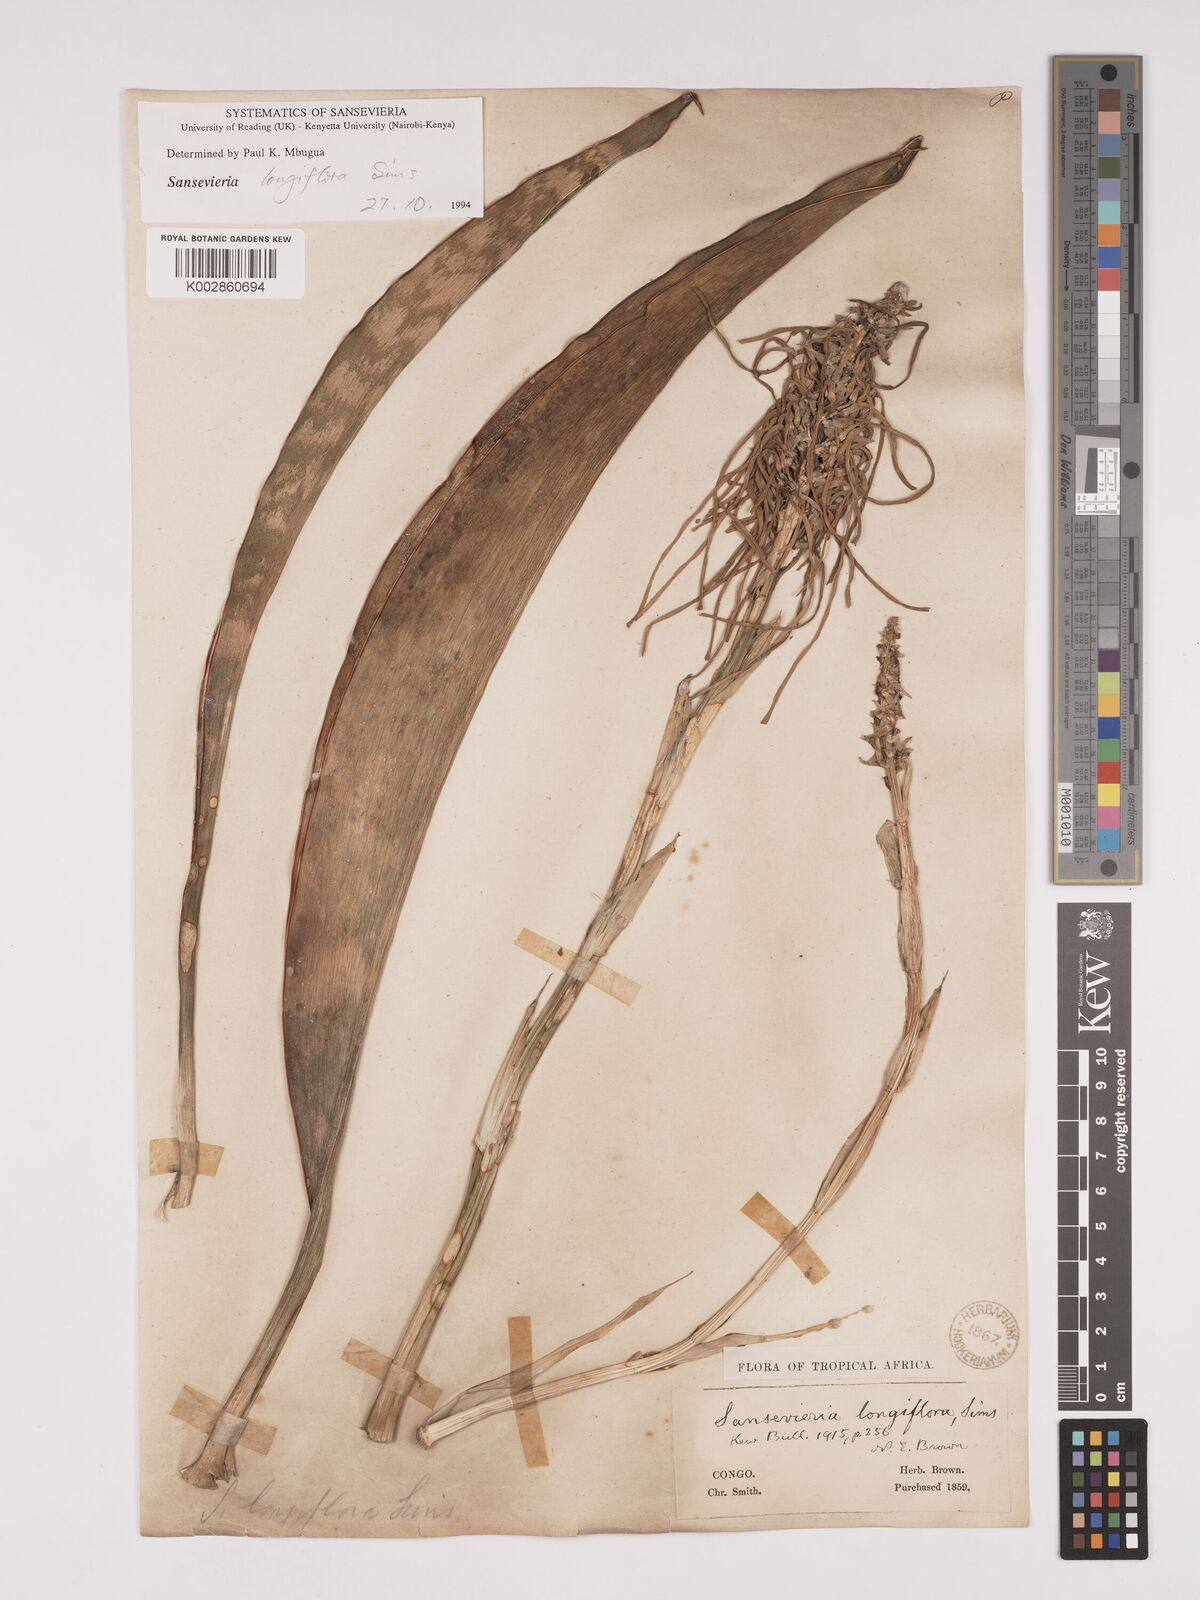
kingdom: Plantae
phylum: Tracheophyta
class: Liliopsida
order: Asparagales
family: Asparagaceae
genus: Dracaena
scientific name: Dracaena longiflora
